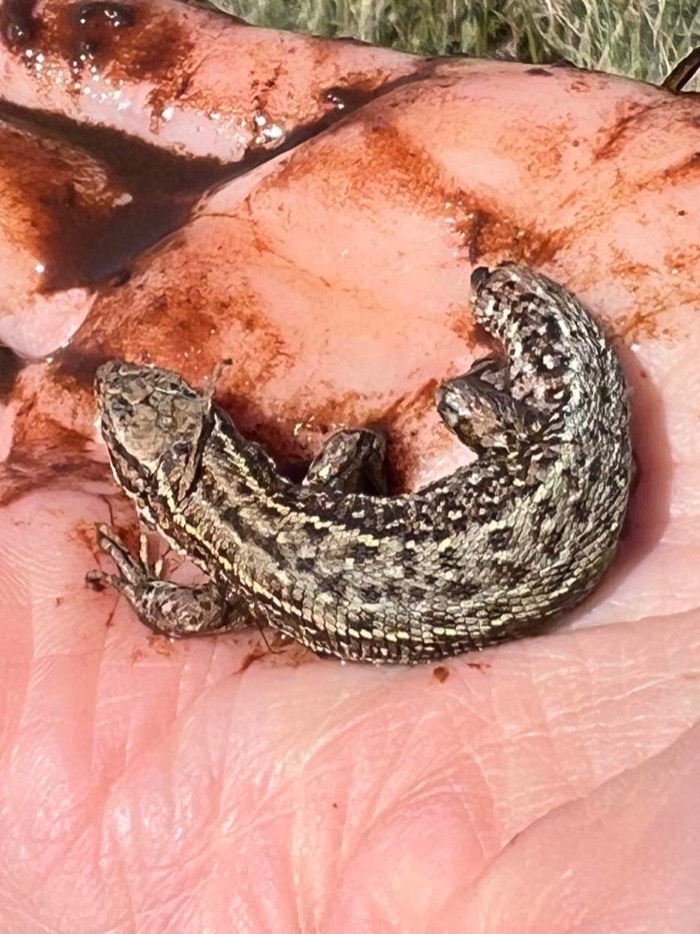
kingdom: Animalia
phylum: Chordata
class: Squamata
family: Lacertidae
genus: Zootoca
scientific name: Zootoca vivipara
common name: Skovfirben
